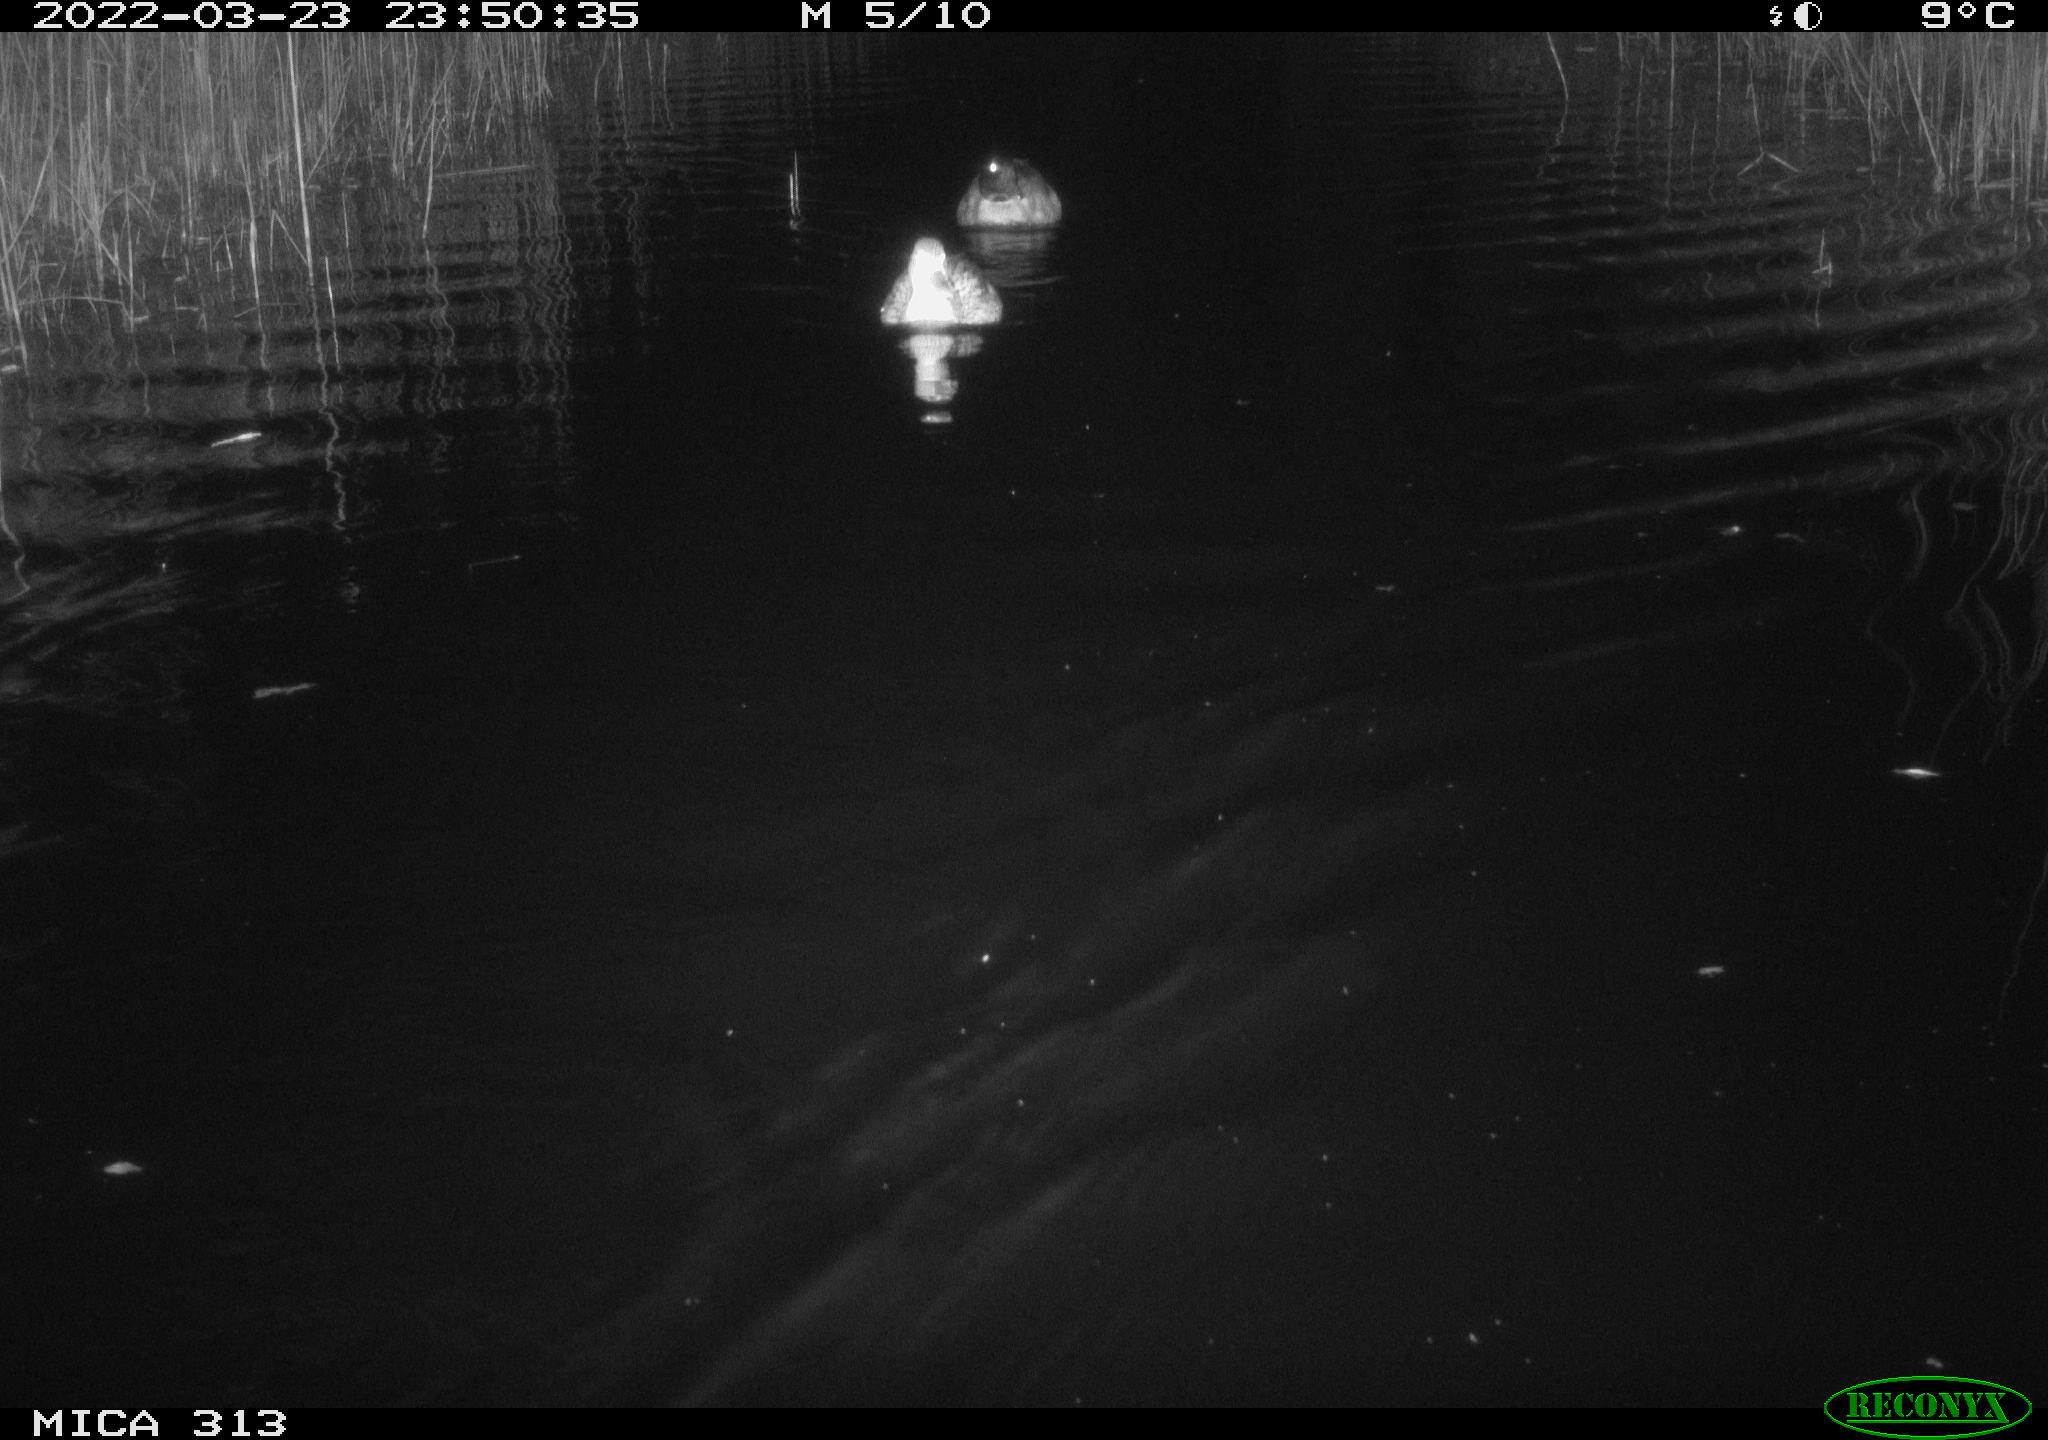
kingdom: Animalia
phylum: Chordata
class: Mammalia
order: Rodentia
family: Cricetidae
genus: Ondatra
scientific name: Ondatra zibethicus
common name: Muskrat
